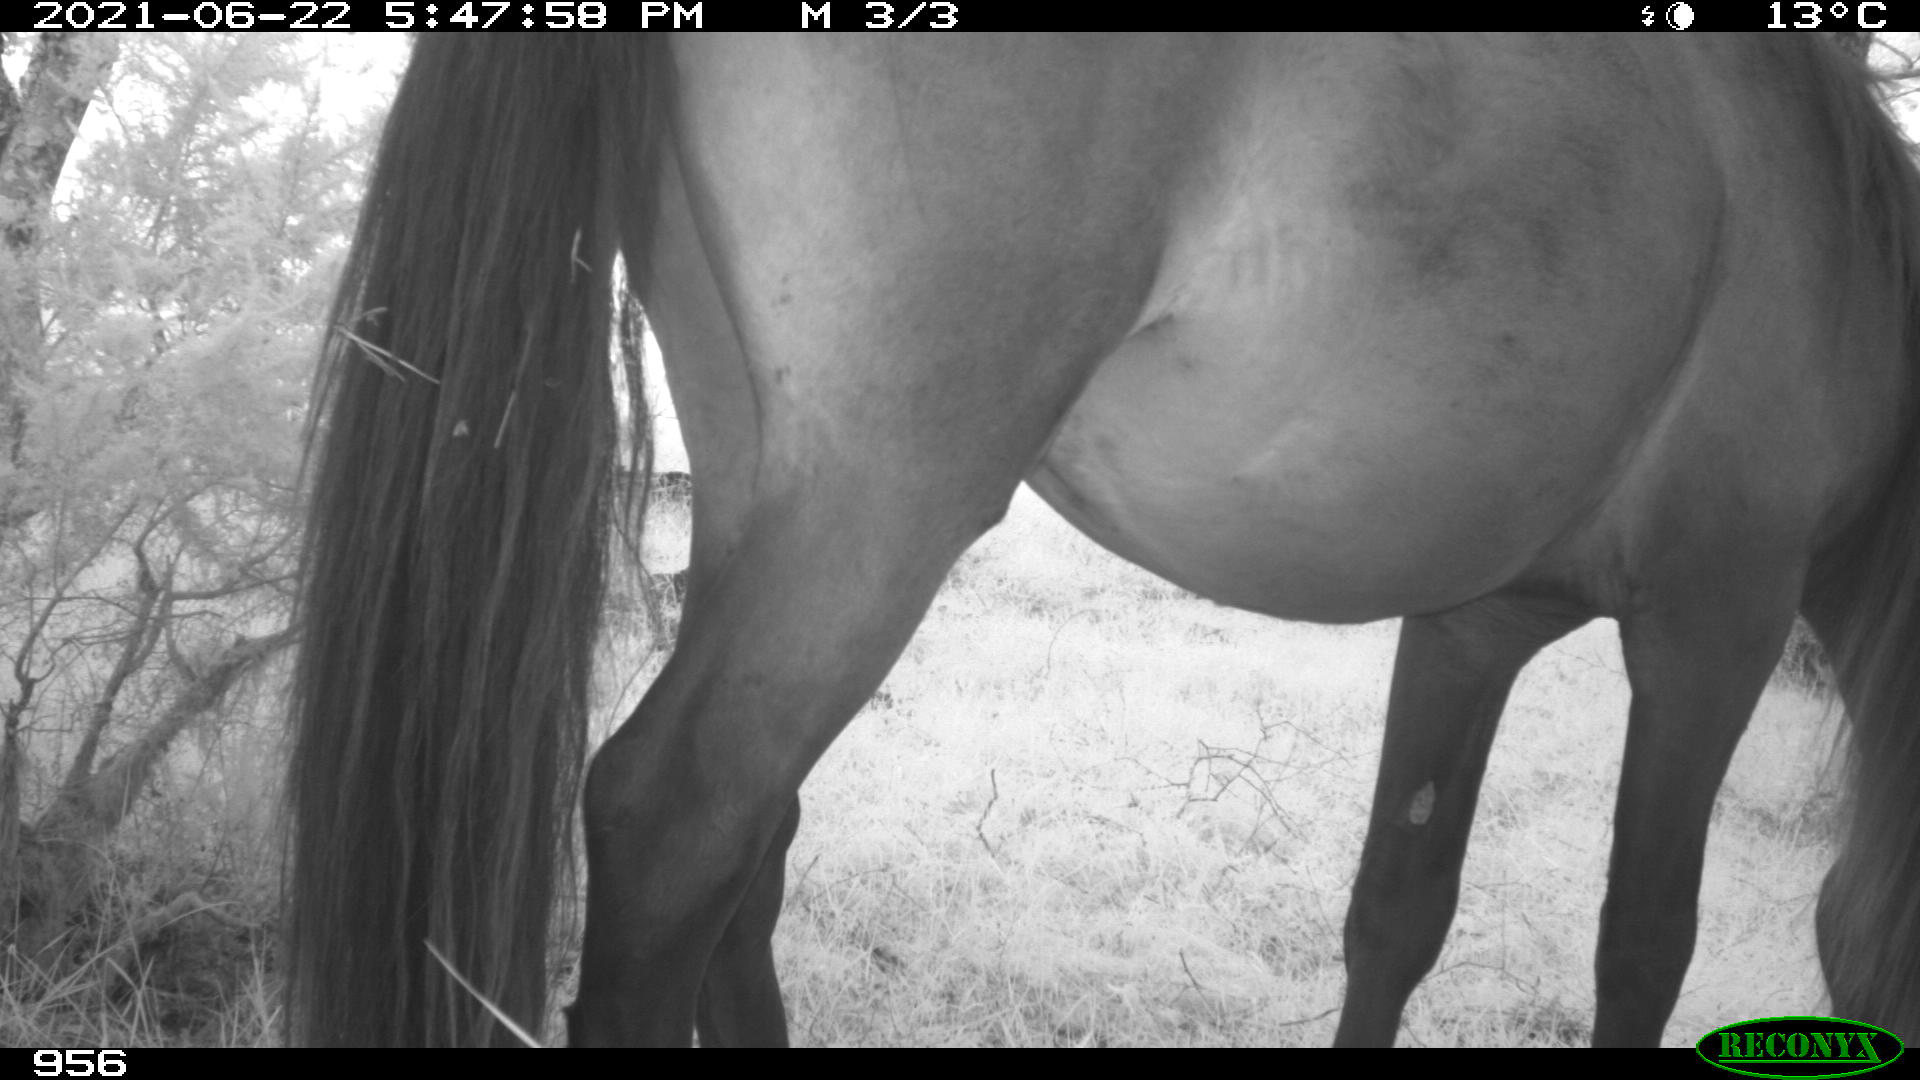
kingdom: Animalia
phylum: Chordata
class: Mammalia
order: Perissodactyla
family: Equidae
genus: Equus
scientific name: Equus caballus
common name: Horse
